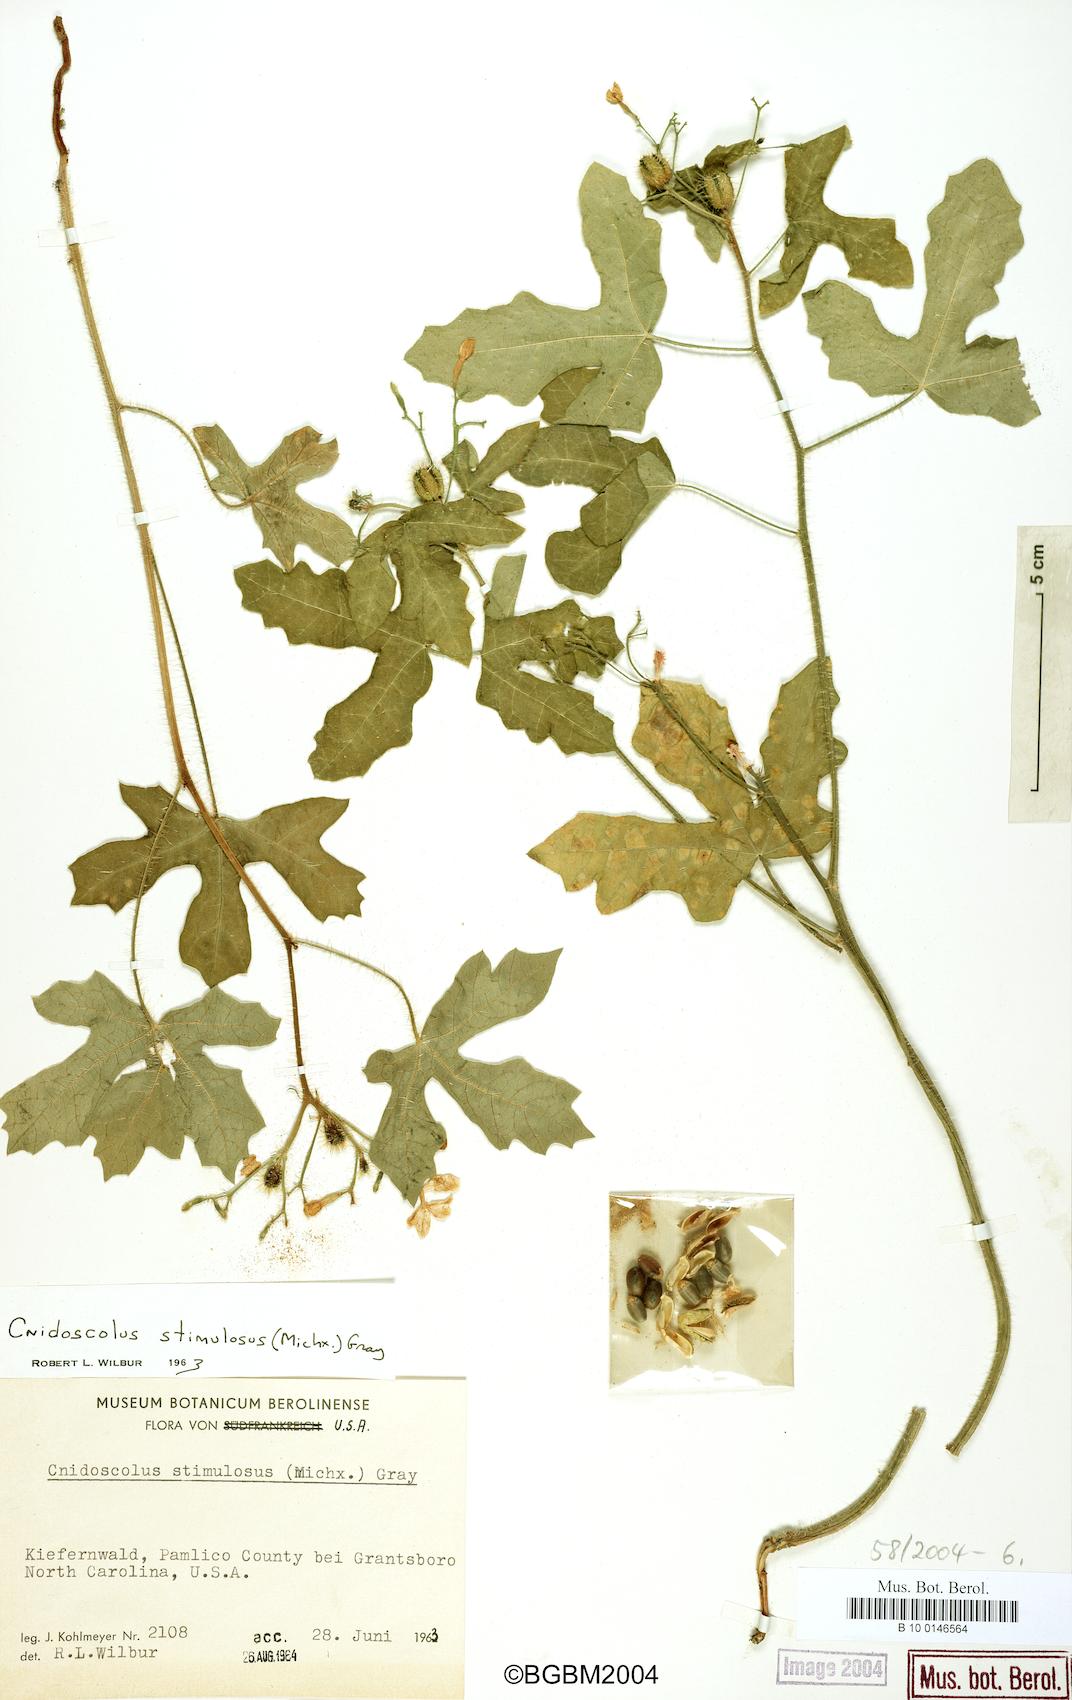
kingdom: Plantae
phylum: Tracheophyta
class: Magnoliopsida
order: Malpighiales
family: Euphorbiaceae
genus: Cnidoscolus
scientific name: Cnidoscolus stimulosus
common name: Bull-nettle
